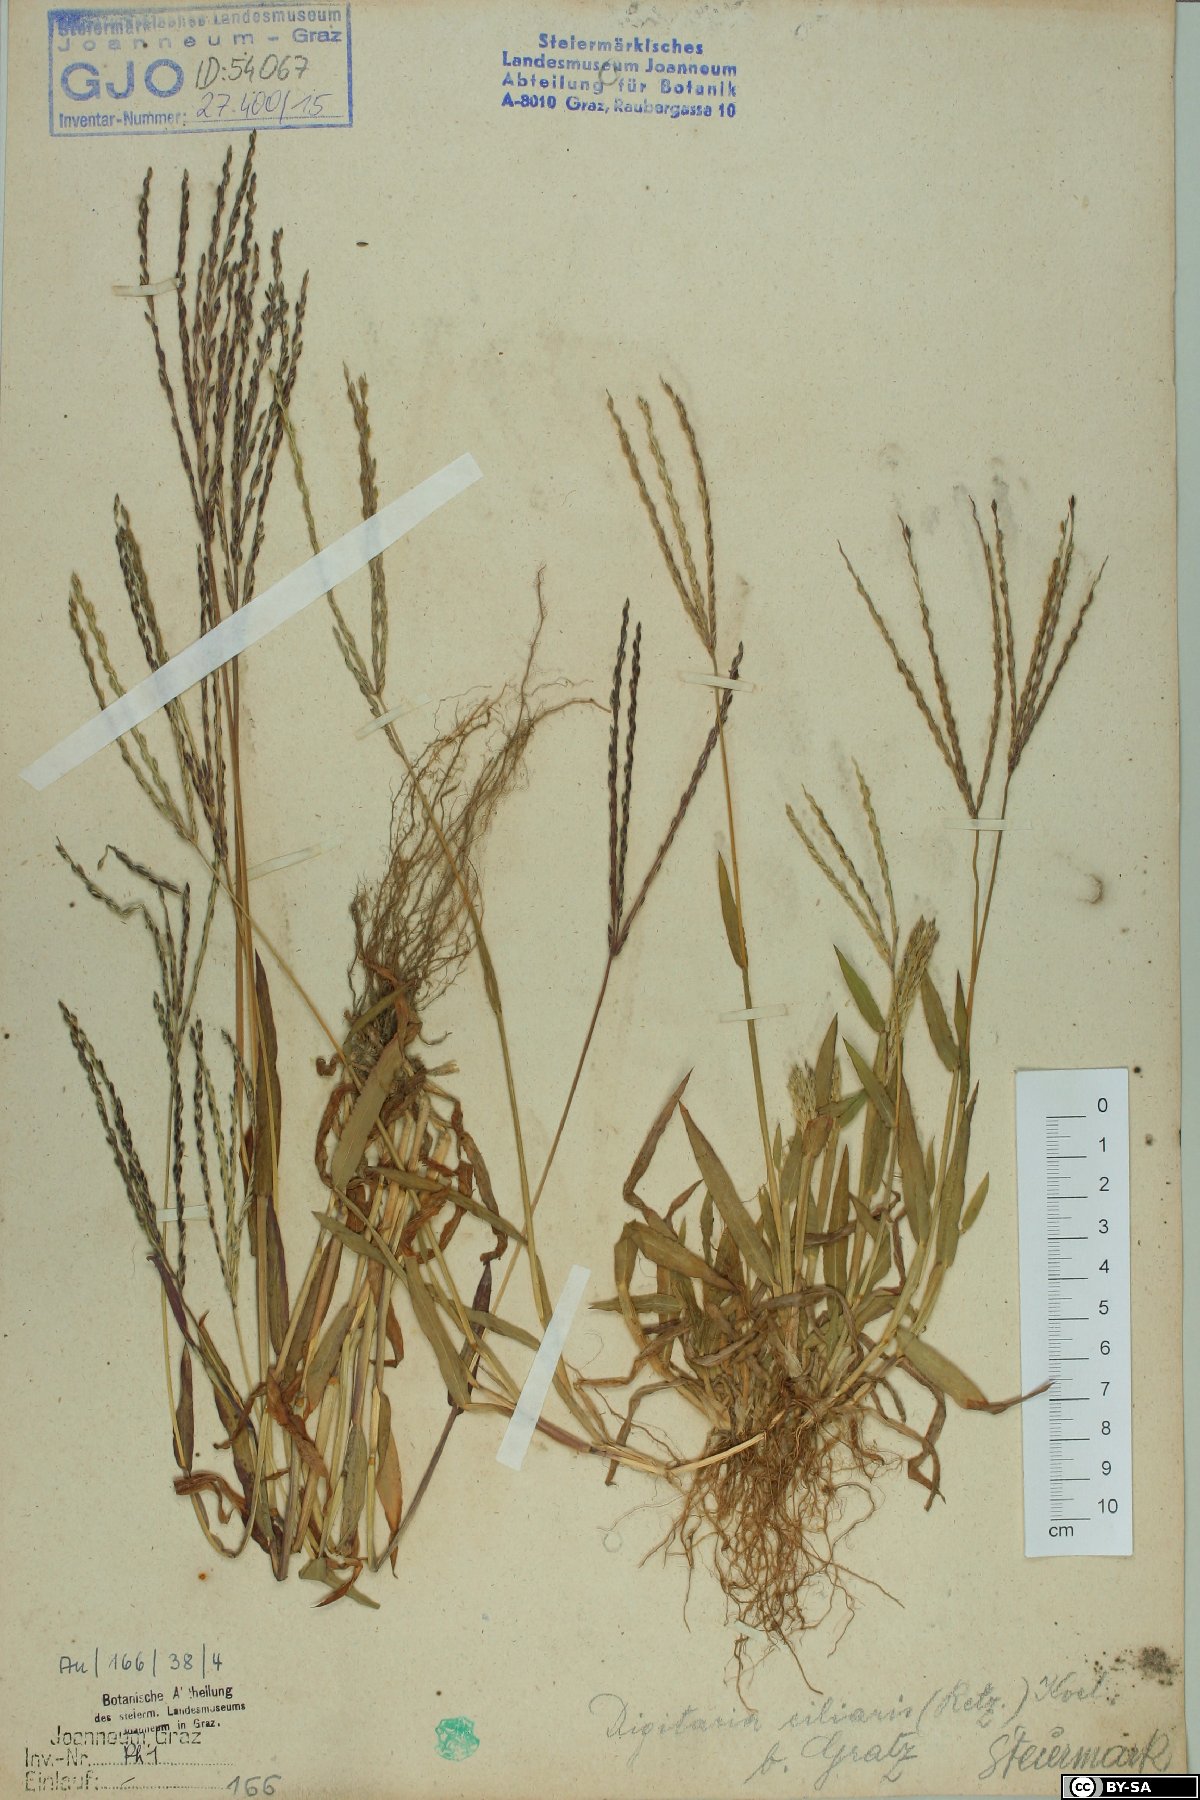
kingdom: Plantae
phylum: Tracheophyta
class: Liliopsida
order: Poales
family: Poaceae
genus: Digitaria
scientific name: Digitaria ciliaris
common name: Tropical finger-grass
